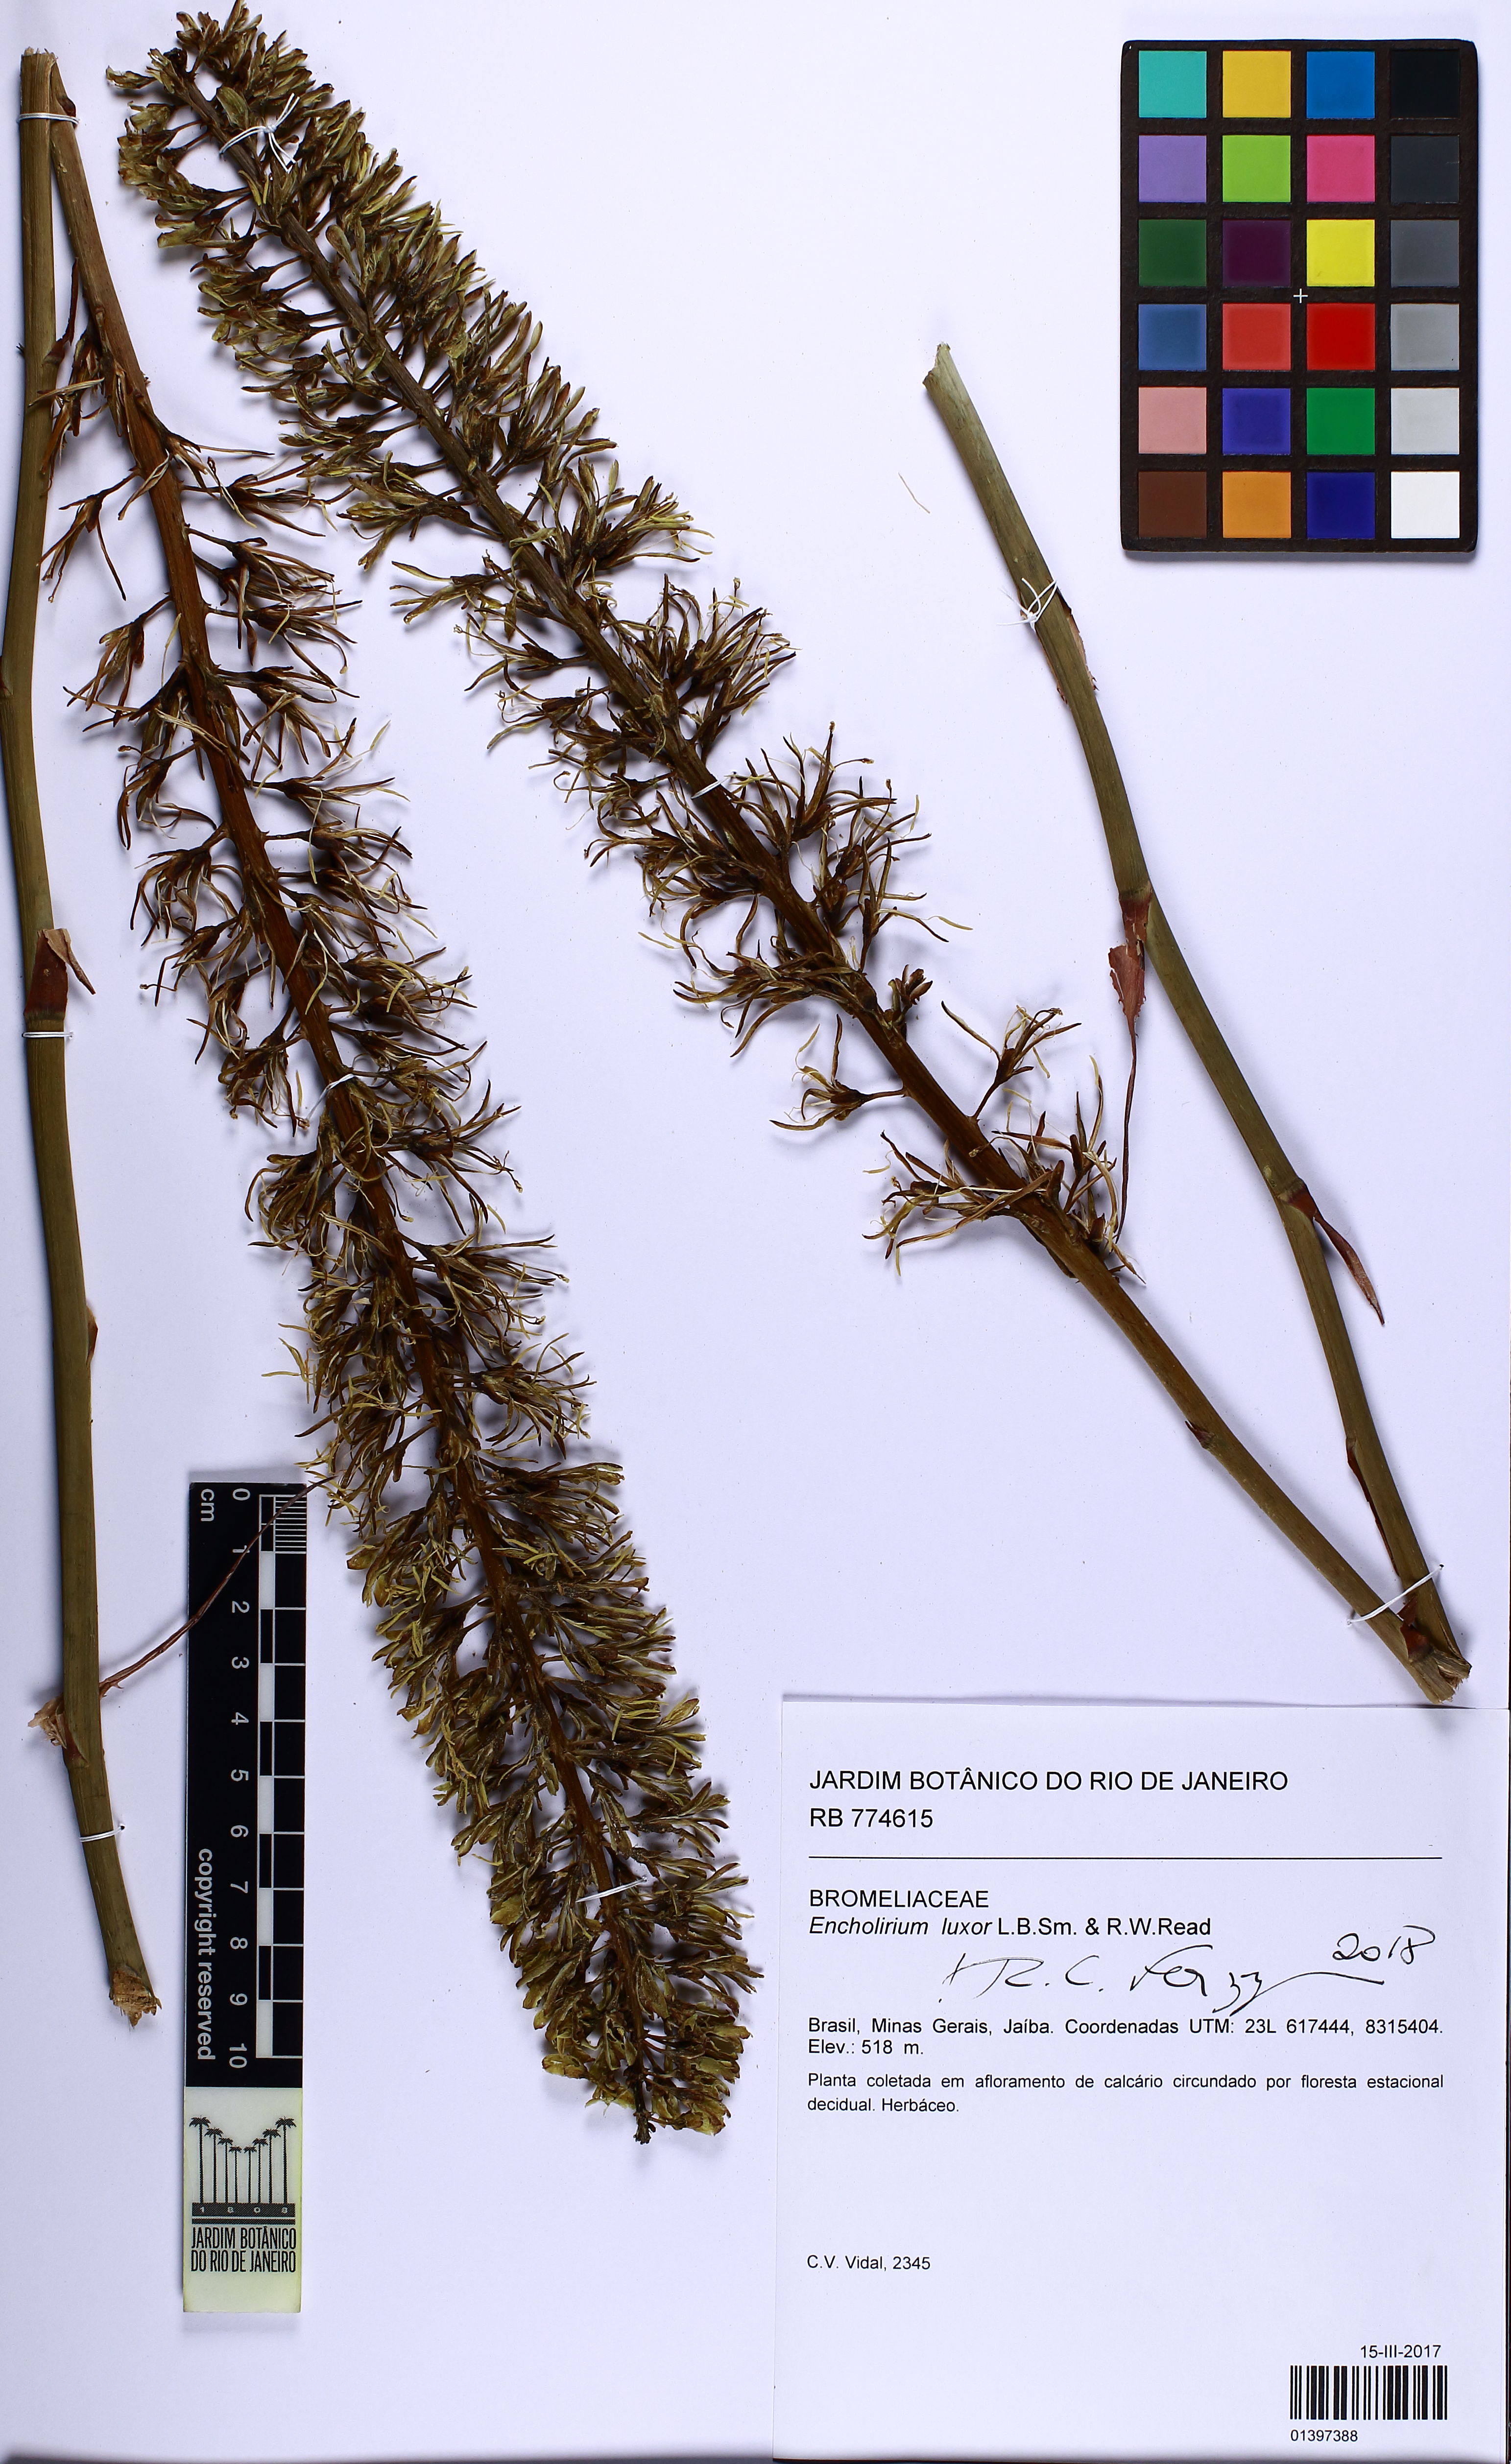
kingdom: Plantae
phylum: Tracheophyta
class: Liliopsida
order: Poales
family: Bromeliaceae
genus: Encholirium
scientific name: Encholirium luxor
